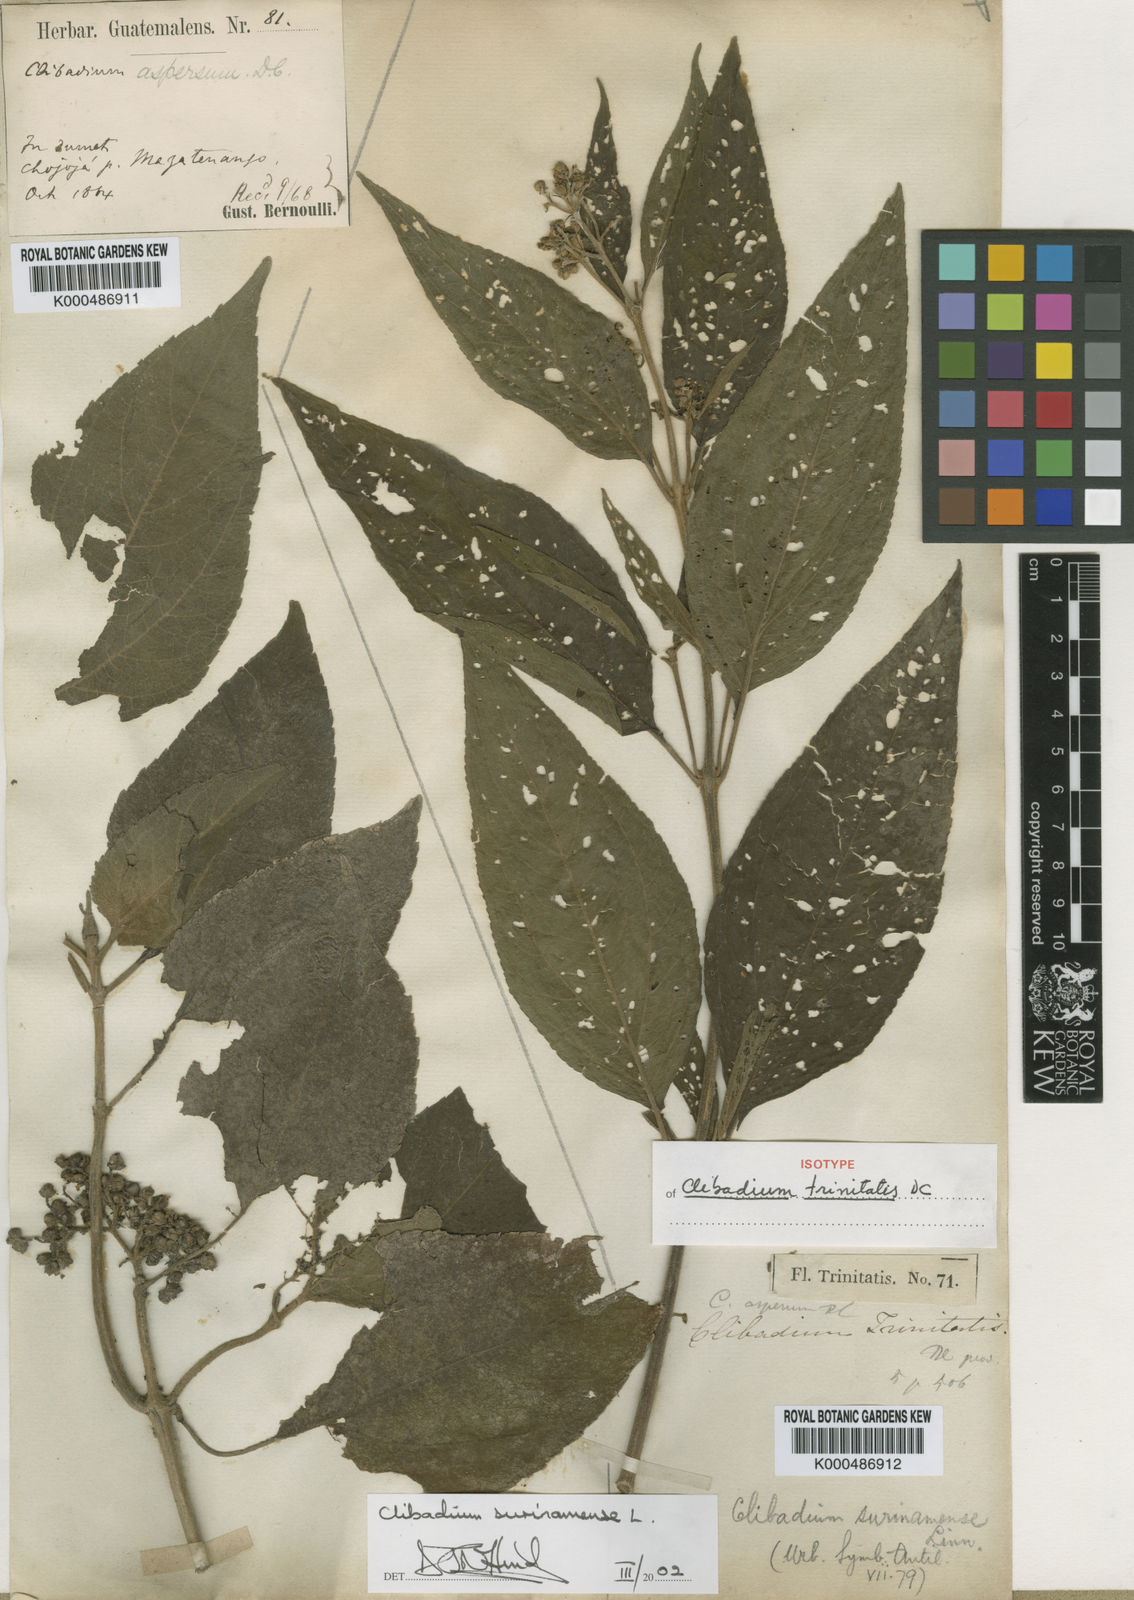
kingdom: Plantae
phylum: Tracheophyta
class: Magnoliopsida
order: Asterales
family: Asteraceae
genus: Clibadium
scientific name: Clibadium surinamense
